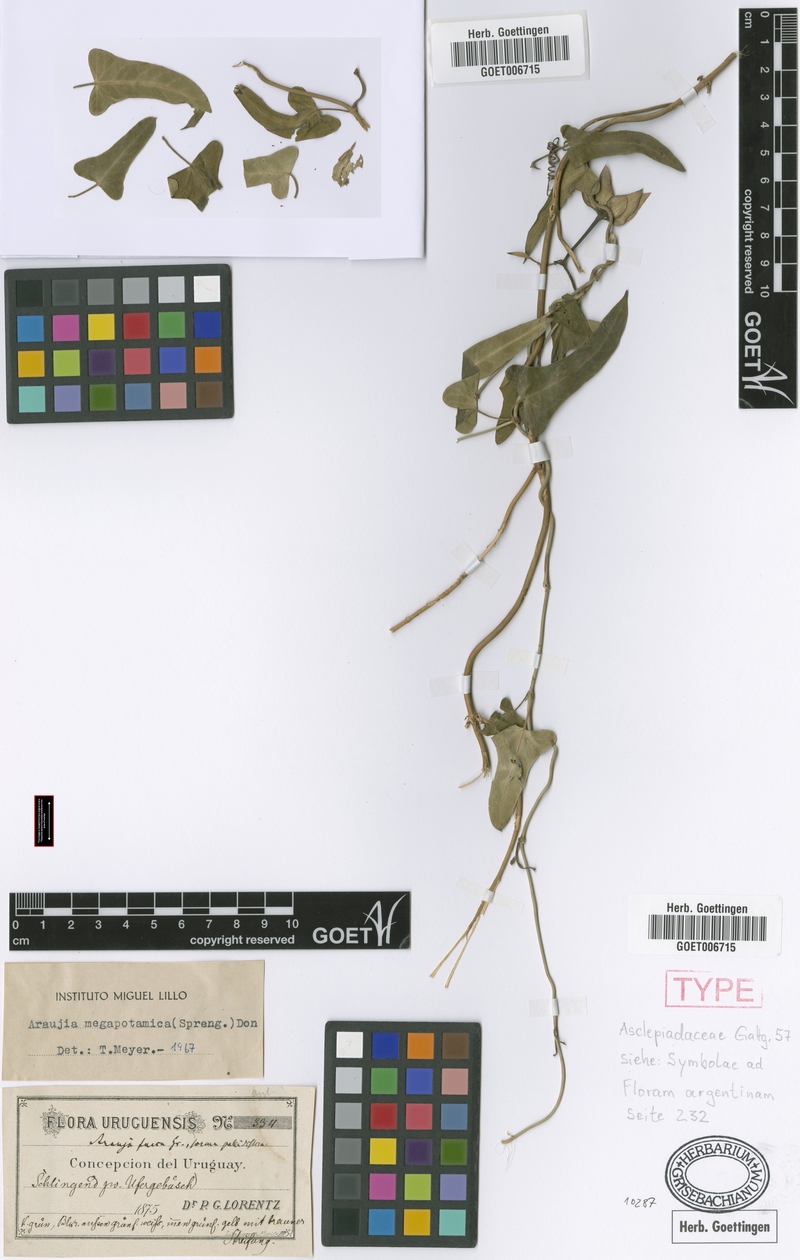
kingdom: Plantae
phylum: Tracheophyta
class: Magnoliopsida
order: Gentianales
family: Apocynaceae
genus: Araujia
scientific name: Araujia megapotamica
